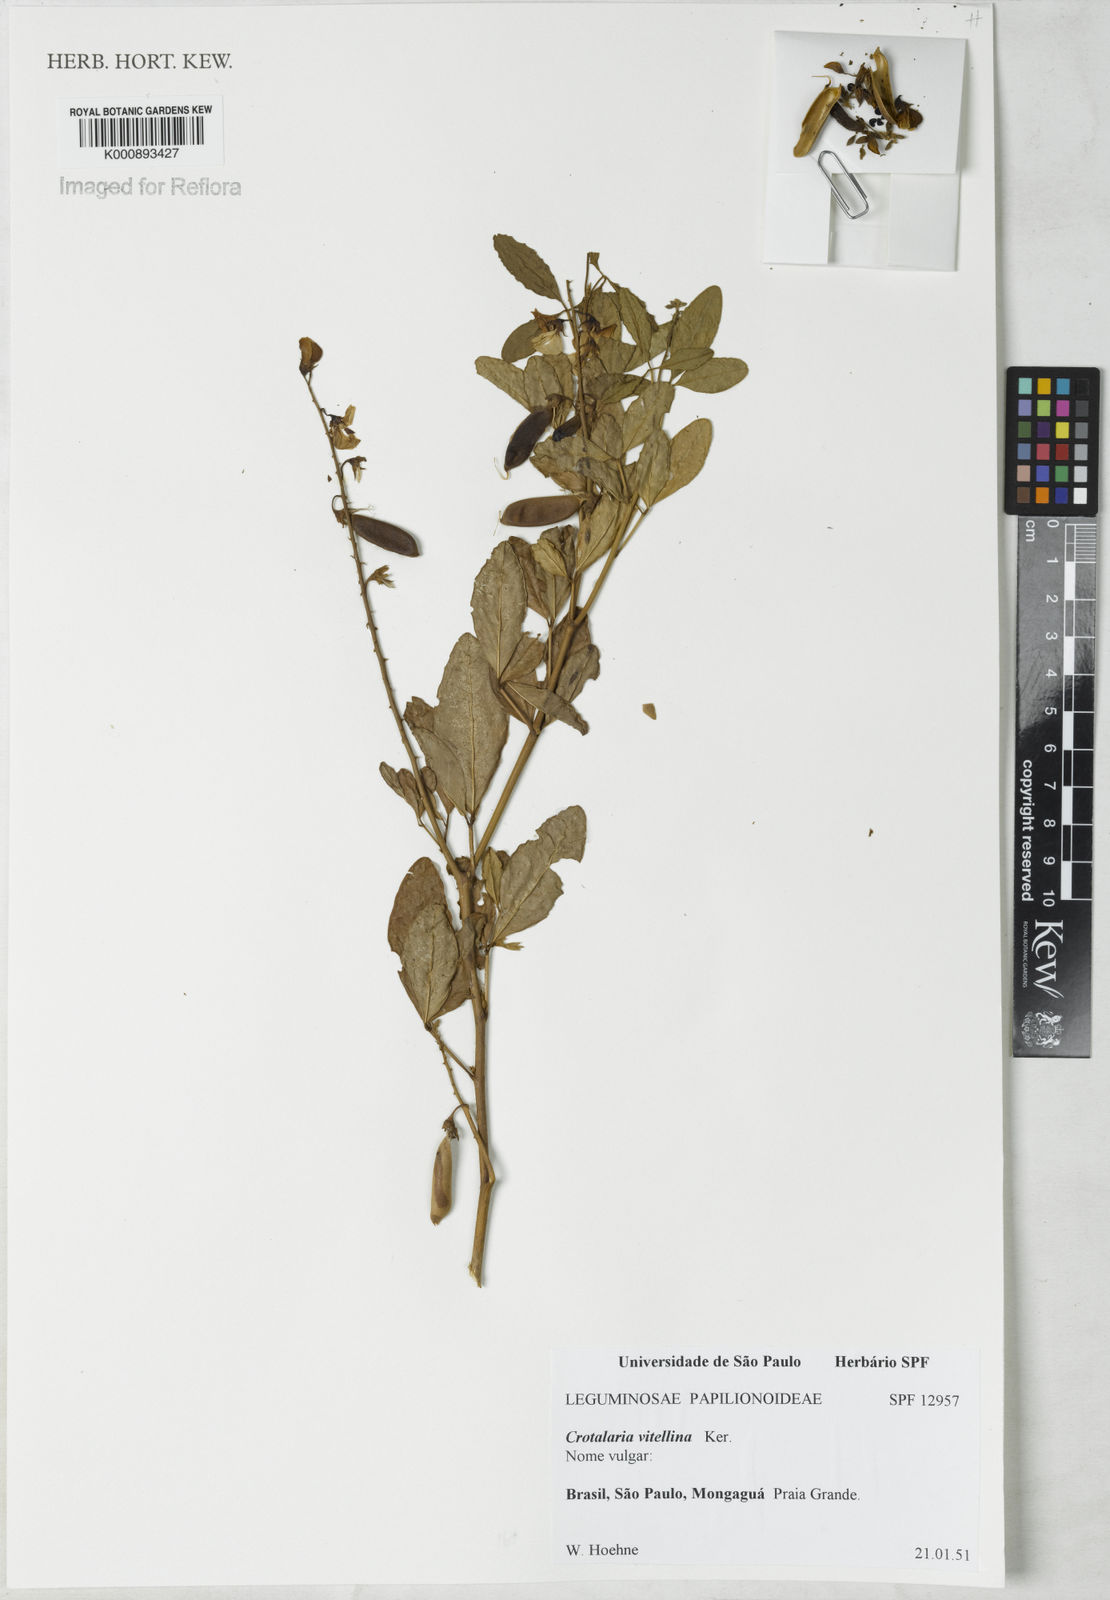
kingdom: Plantae
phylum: Tracheophyta
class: Magnoliopsida
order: Fabales
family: Fabaceae
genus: Crotalaria
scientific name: Crotalaria vitellina
